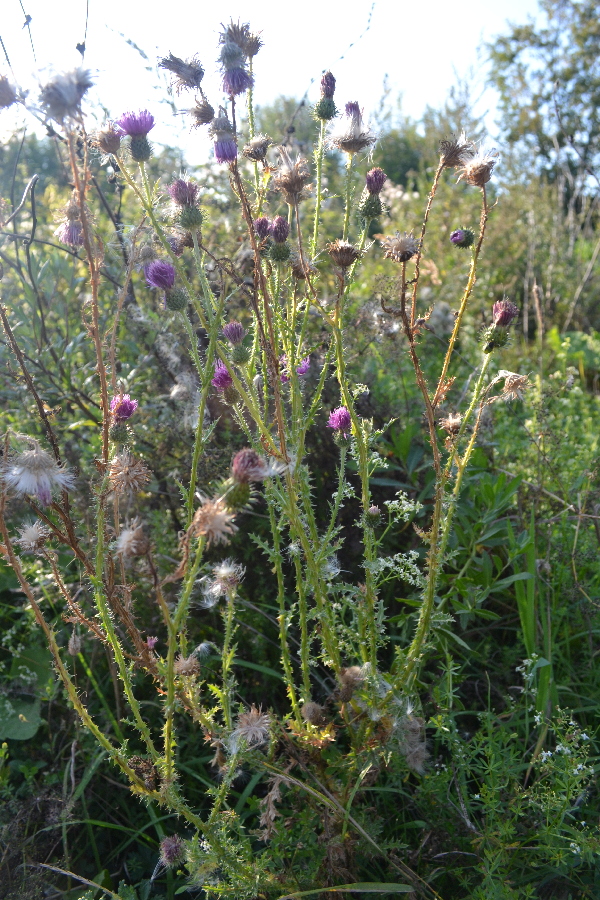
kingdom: Plantae
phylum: Tracheophyta
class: Magnoliopsida
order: Asterales
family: Asteraceae
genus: Cirsium
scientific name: Cirsium vulgare
